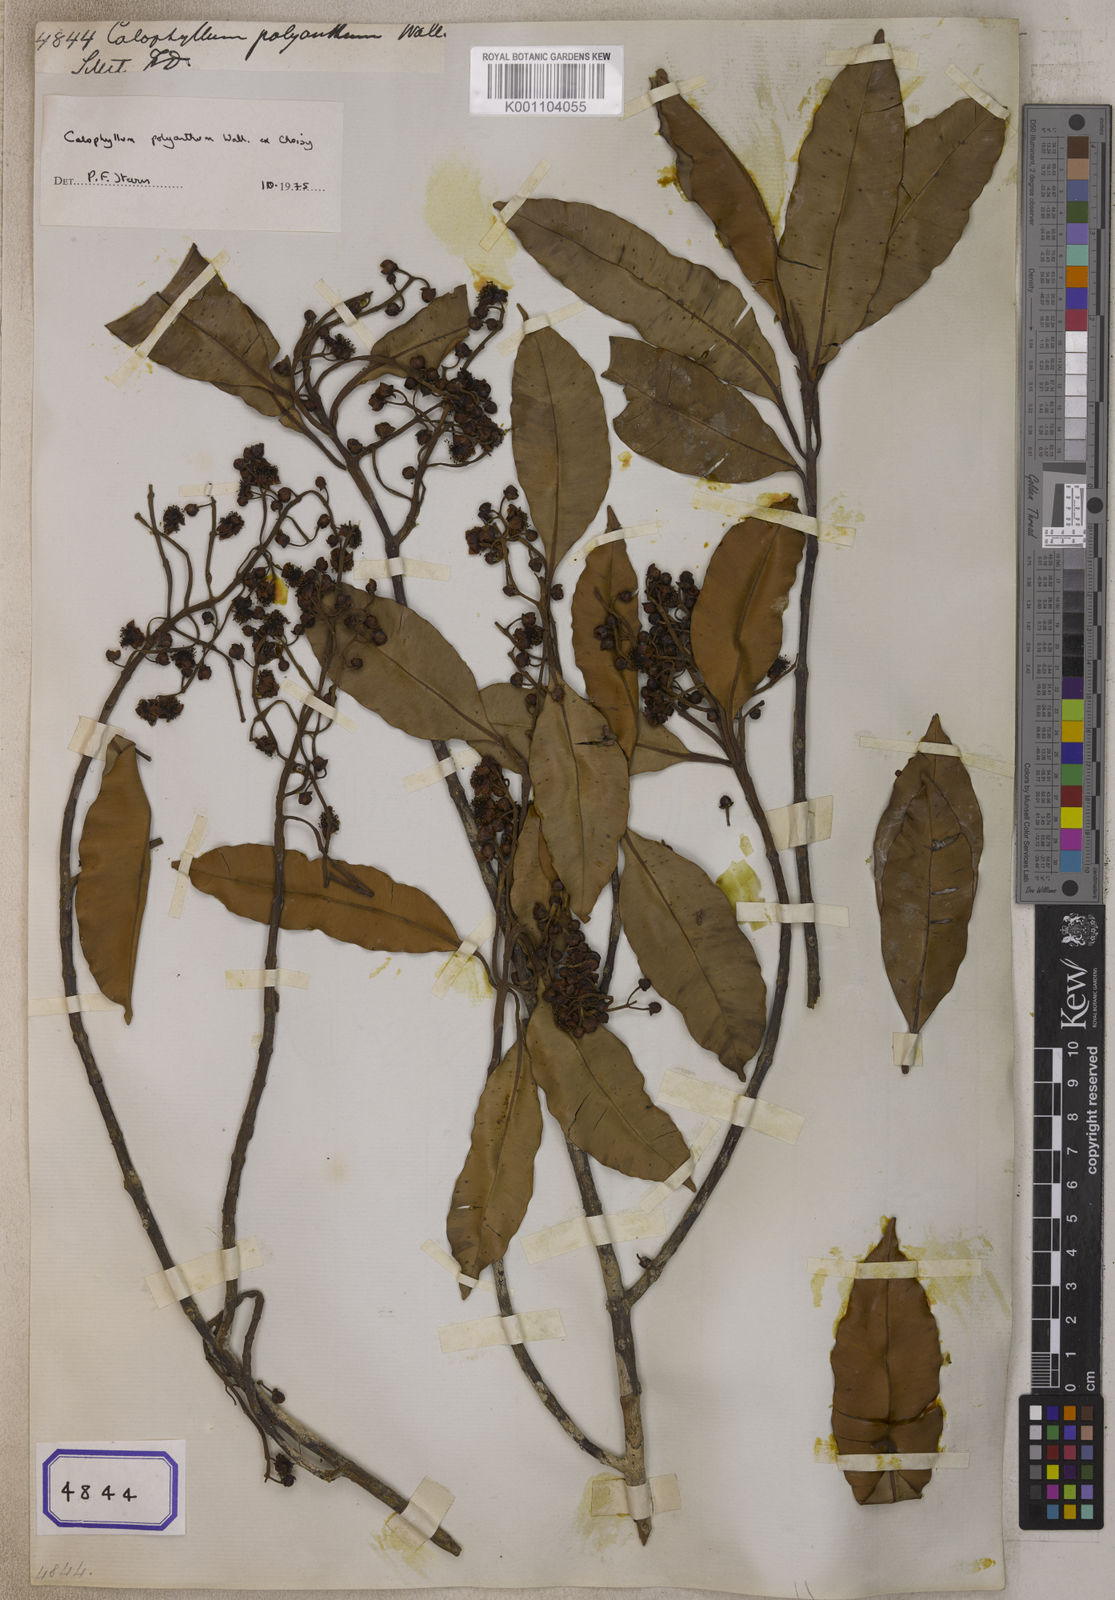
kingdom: Plantae
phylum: Tracheophyta
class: Magnoliopsida
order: Malpighiales
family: Calophyllaceae
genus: Calophyllum
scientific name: Calophyllum
